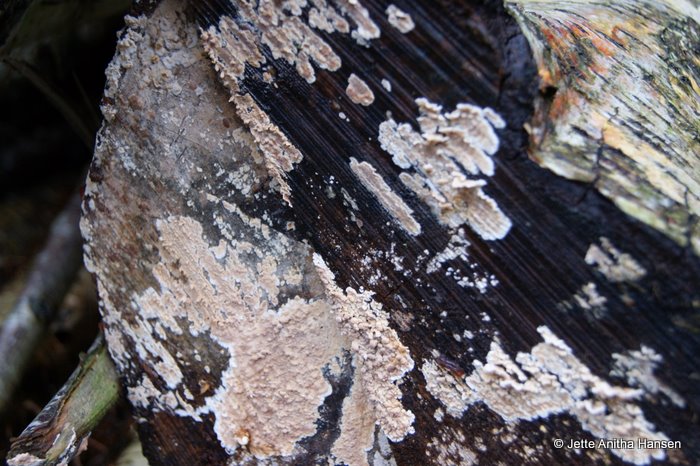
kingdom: Fungi
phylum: Basidiomycota
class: Agaricomycetes
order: Agaricales
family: Physalacriaceae
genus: Cylindrobasidium
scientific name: Cylindrobasidium evolvens
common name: sprækkehinde
